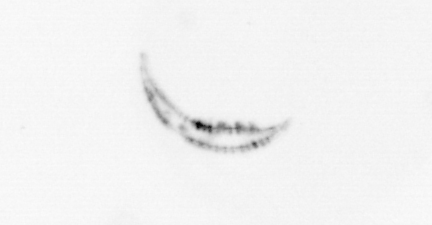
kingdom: Chromista
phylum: Ochrophyta
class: Bacillariophyceae
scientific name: Bacillariophyceae
